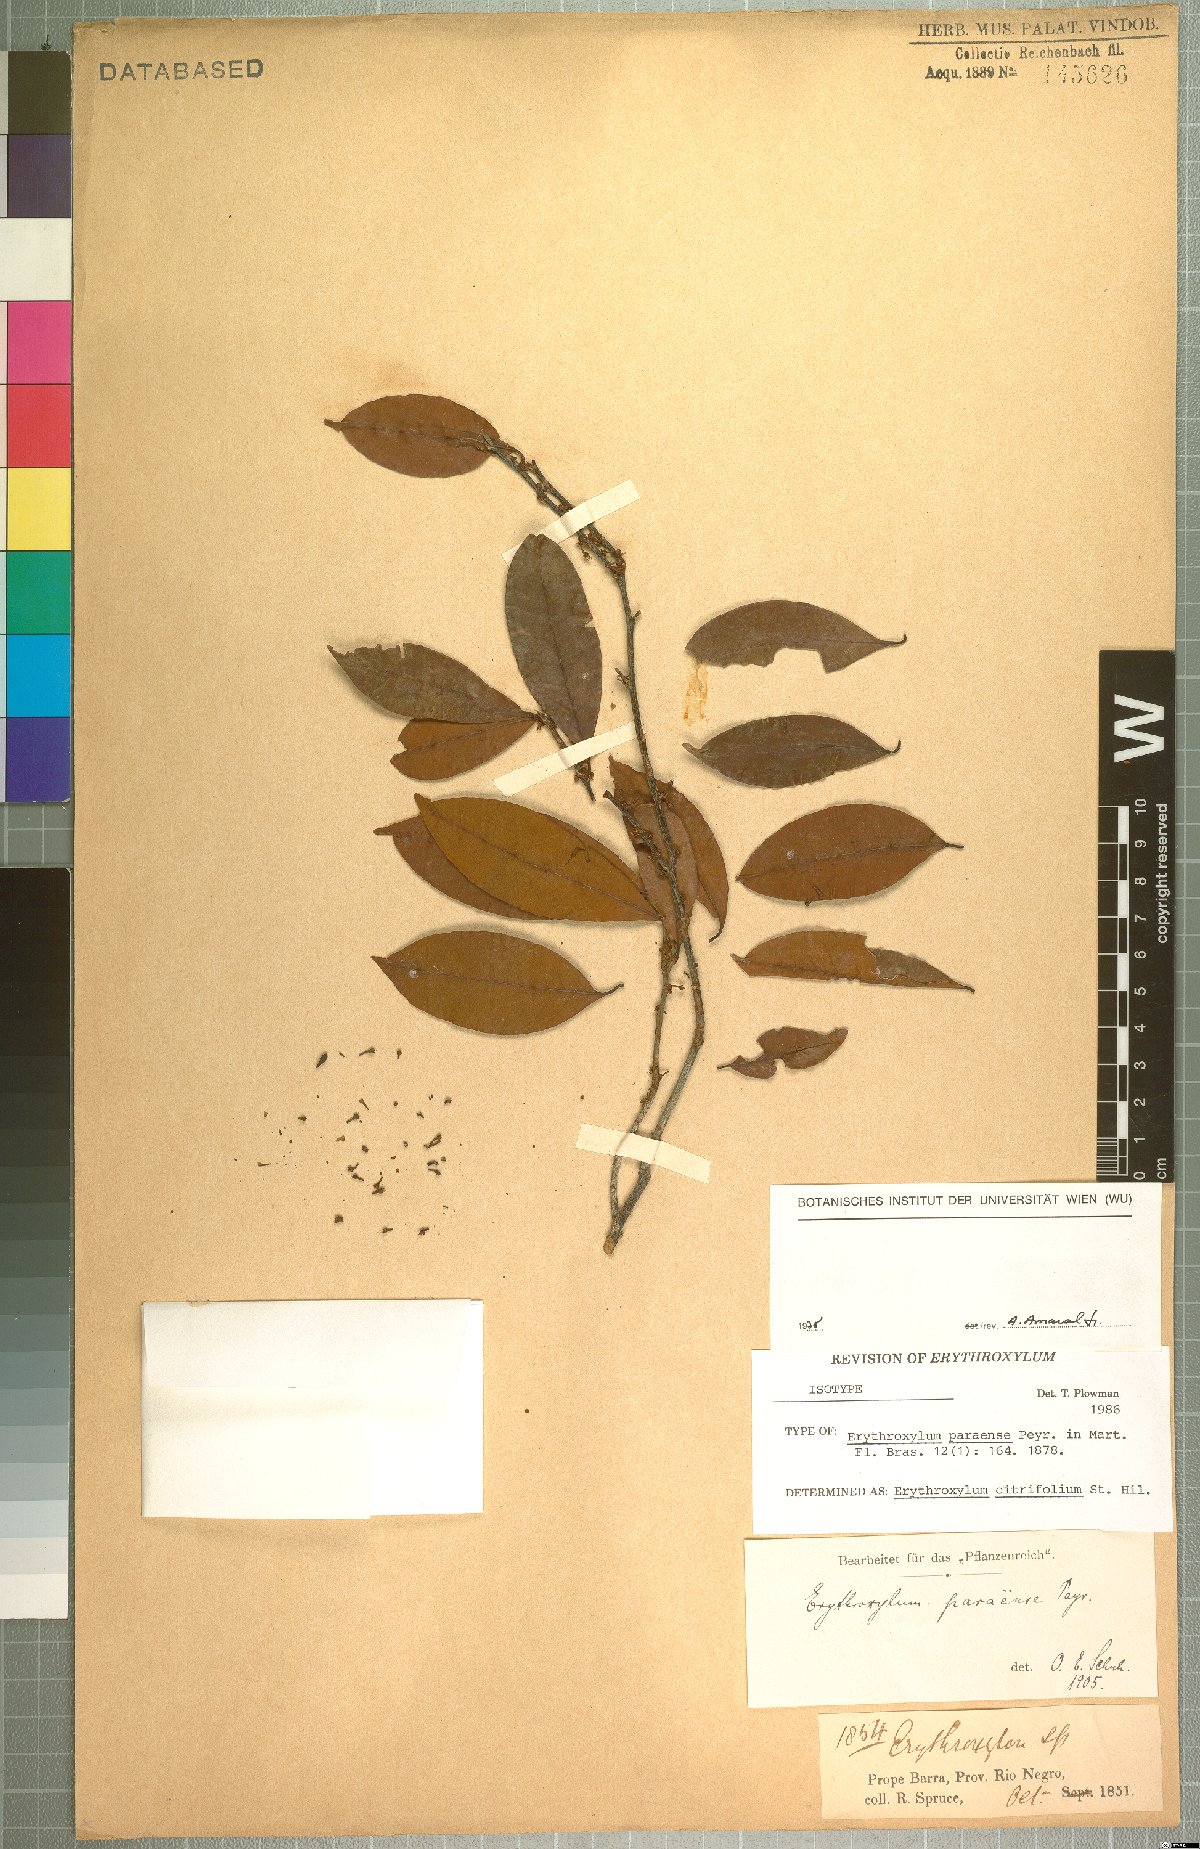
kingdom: Plantae
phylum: Tracheophyta
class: Magnoliopsida
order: Malpighiales
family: Erythroxylaceae
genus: Erythroxylum
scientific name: Erythroxylum citrifolium
